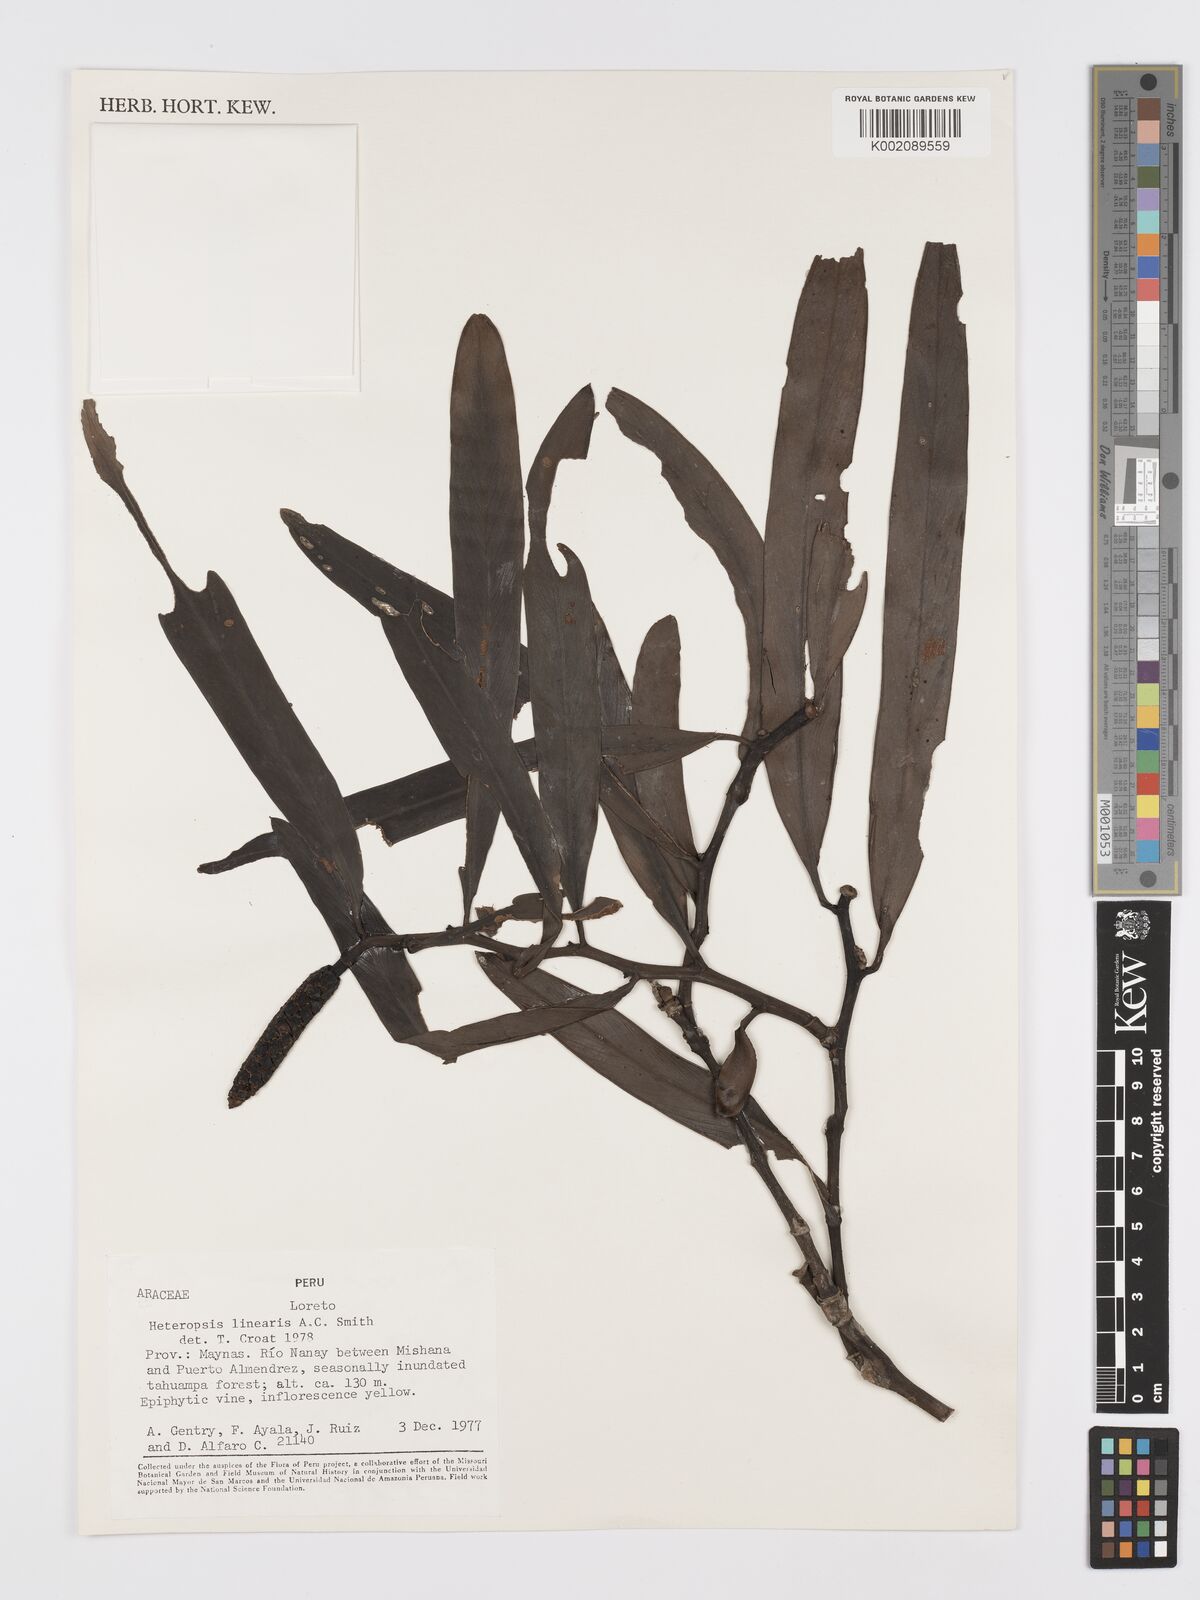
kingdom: Plantae
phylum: Tracheophyta
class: Liliopsida
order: Alismatales
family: Araceae
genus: Heteropsis
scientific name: Heteropsis linearis
